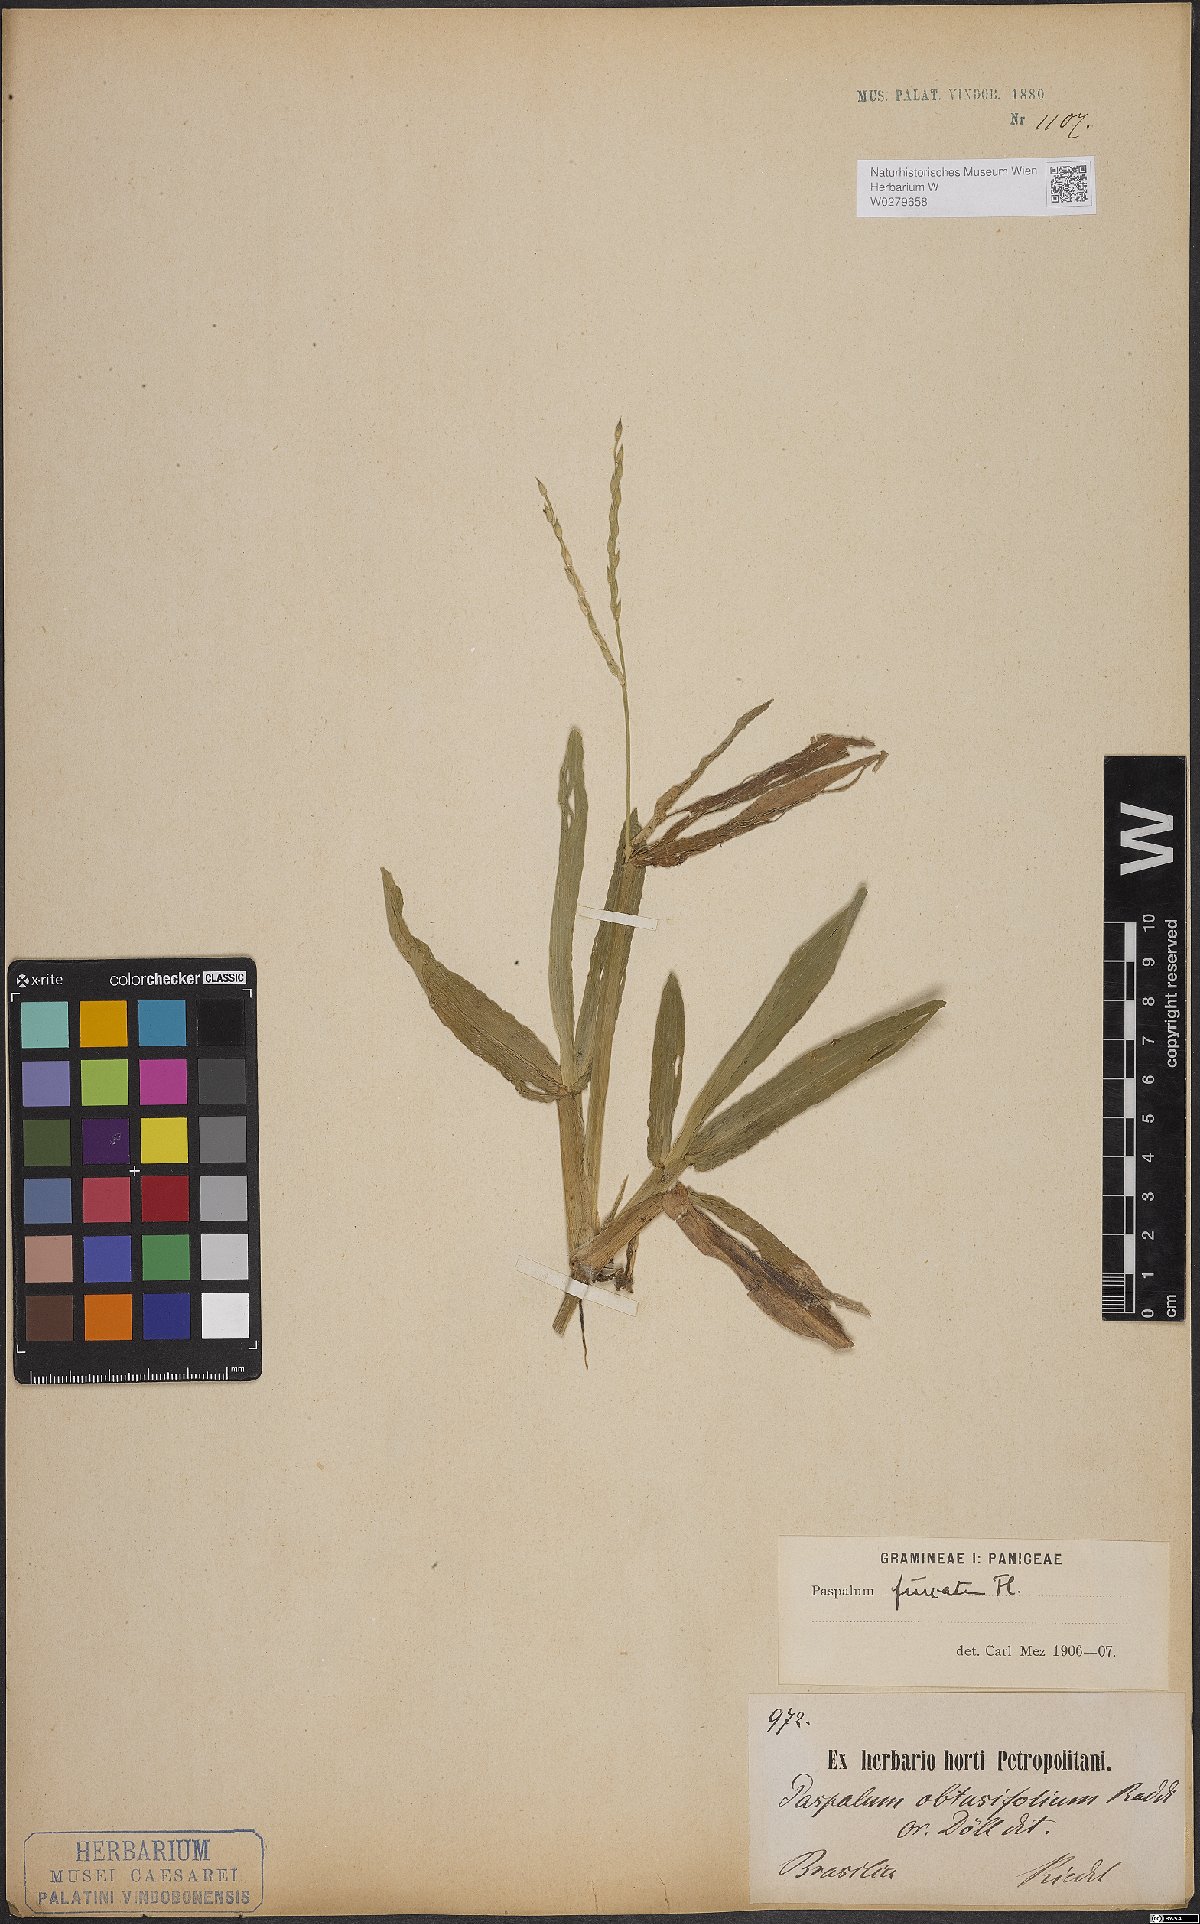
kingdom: Plantae
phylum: Tracheophyta
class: Liliopsida
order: Poales
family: Poaceae
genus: Axonopus
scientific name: Axonopus furcatus
